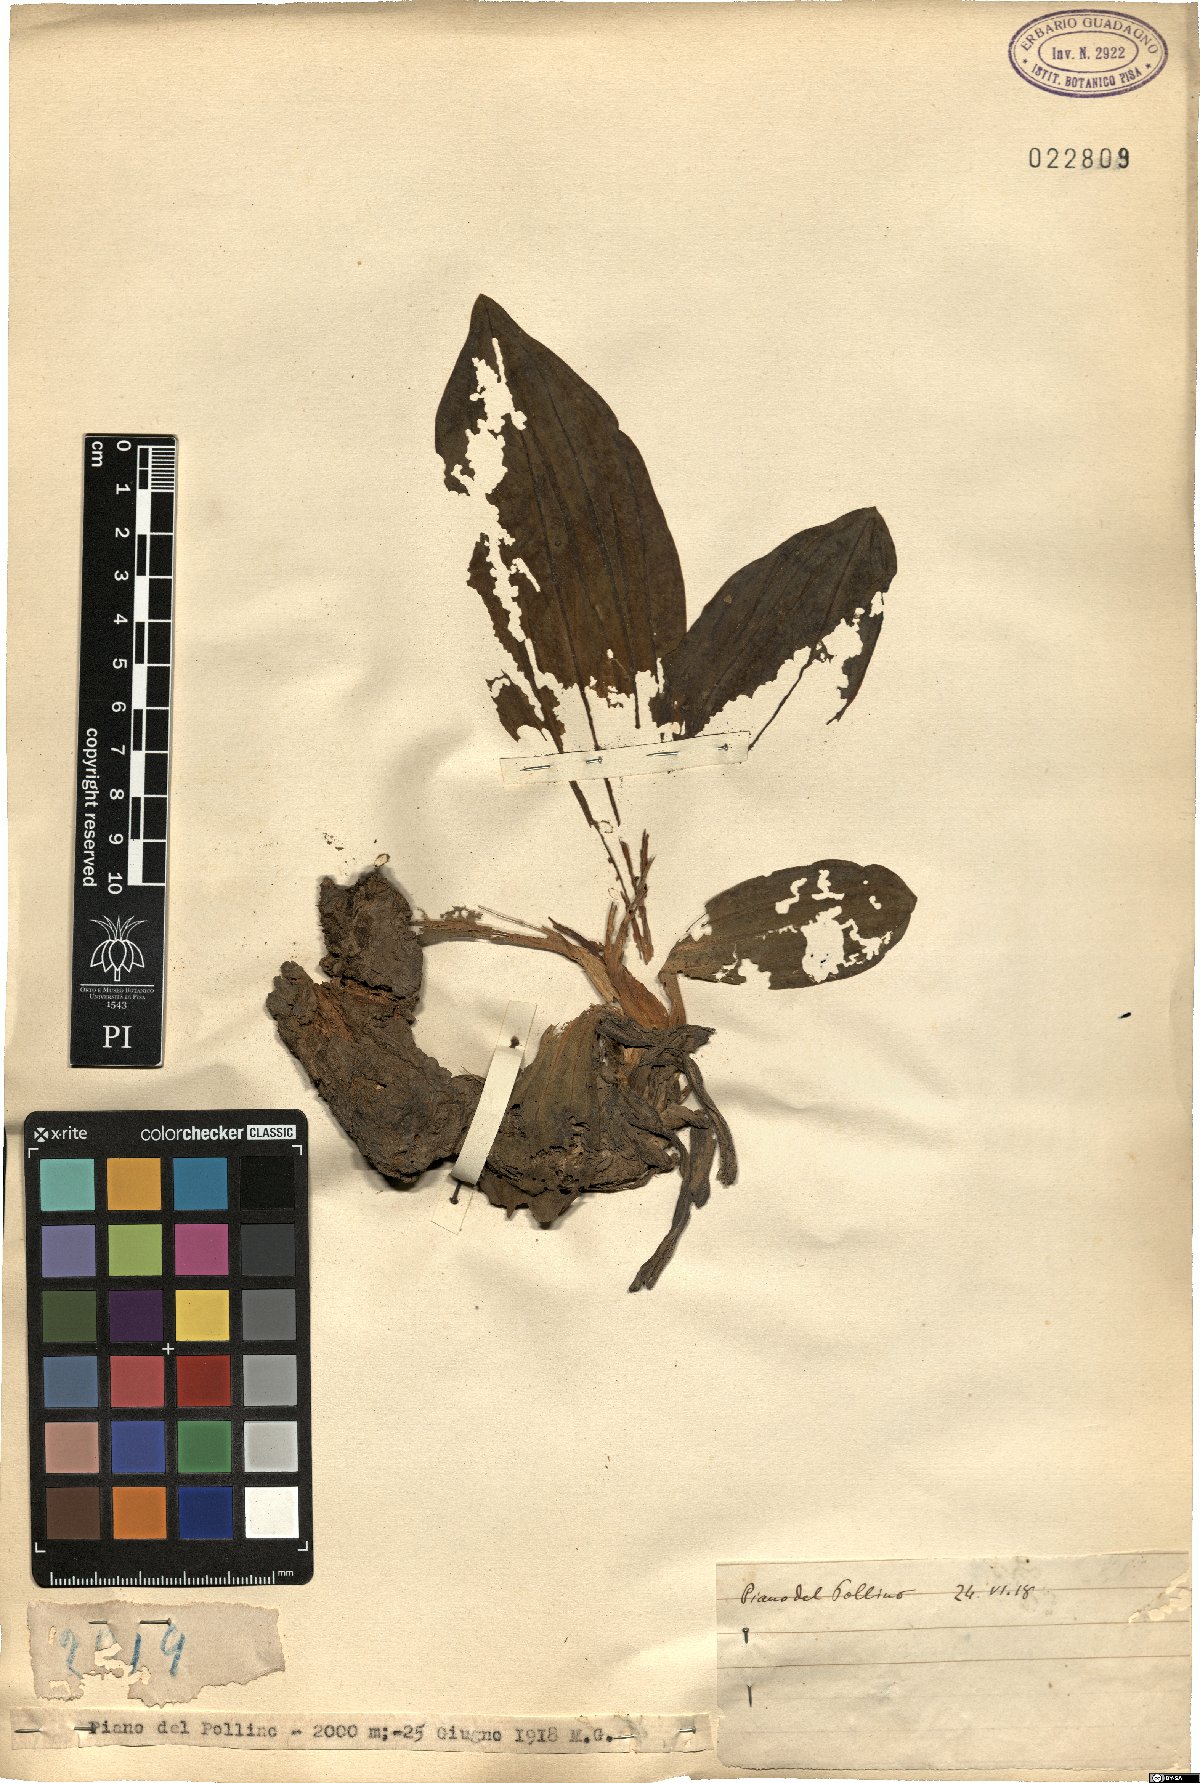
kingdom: Plantae
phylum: Tracheophyta
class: Magnoliopsida
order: Gentianales
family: Gentianaceae
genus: Gentiana
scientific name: Gentiana
